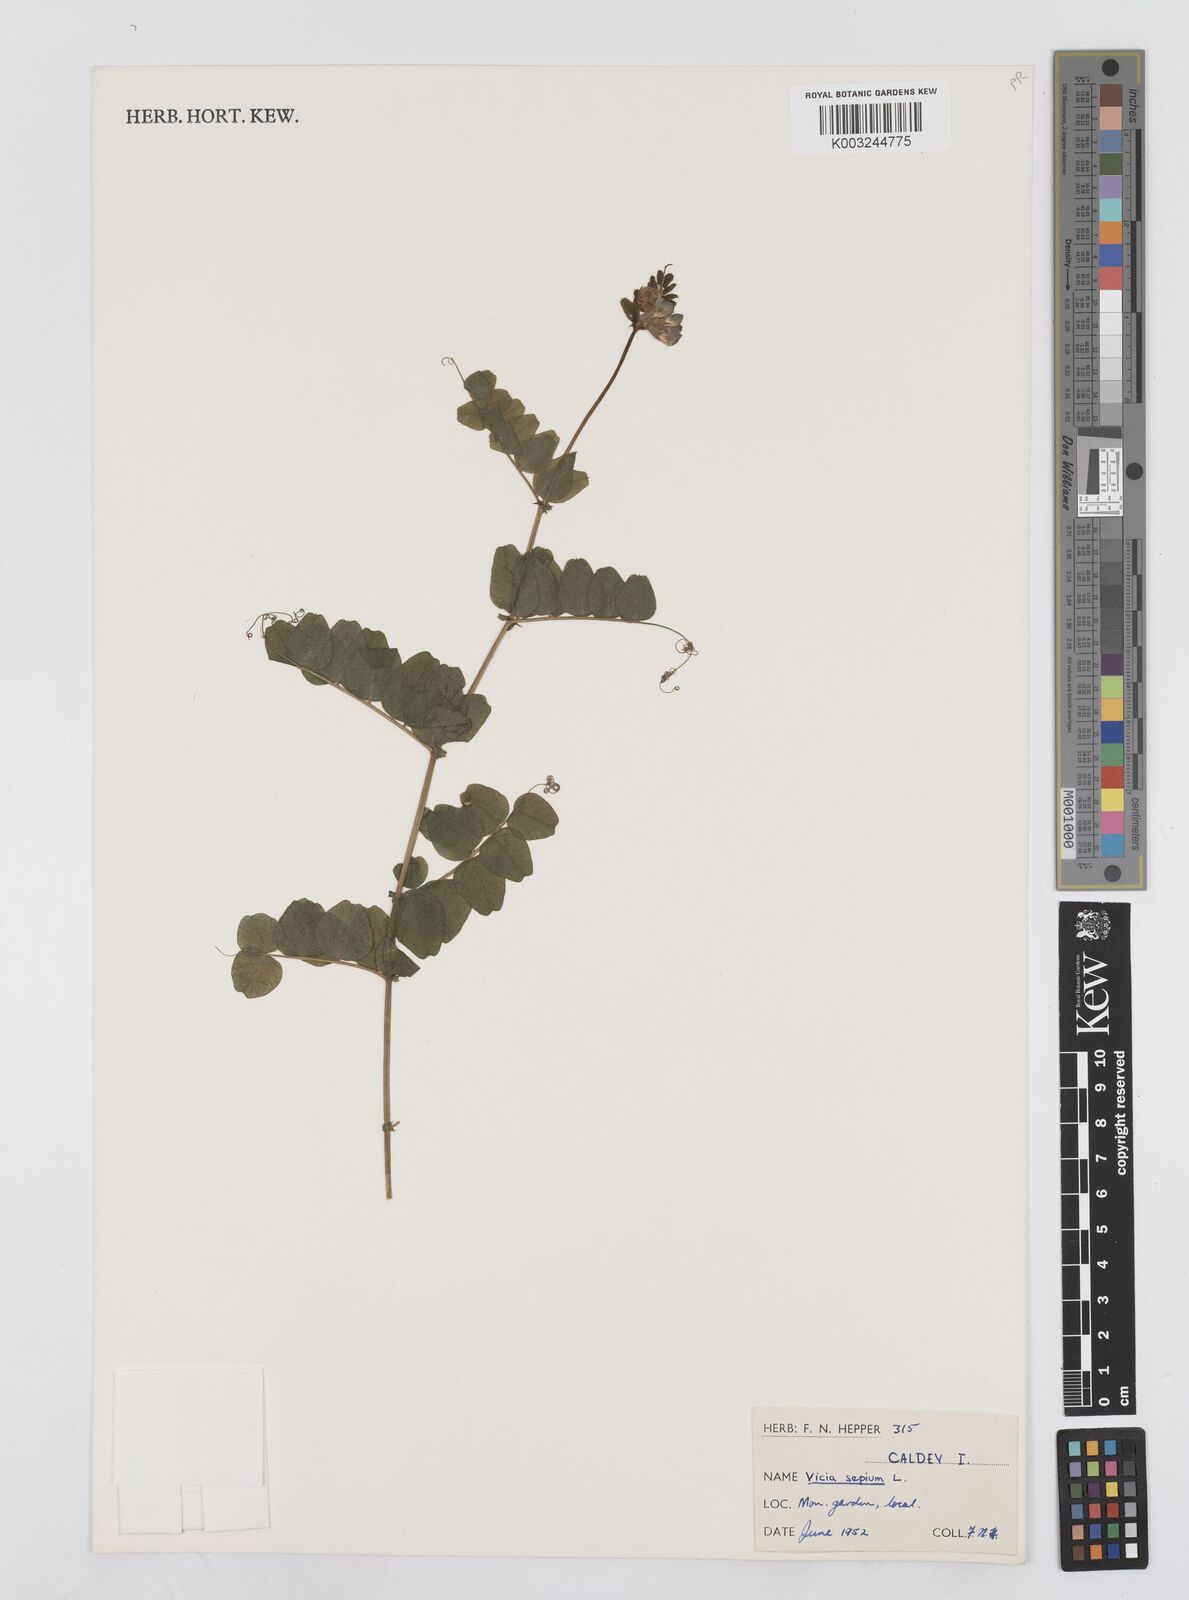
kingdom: Plantae
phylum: Tracheophyta
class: Magnoliopsida
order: Fabales
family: Fabaceae
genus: Vicia
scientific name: Vicia sepium
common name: Bush vetch
